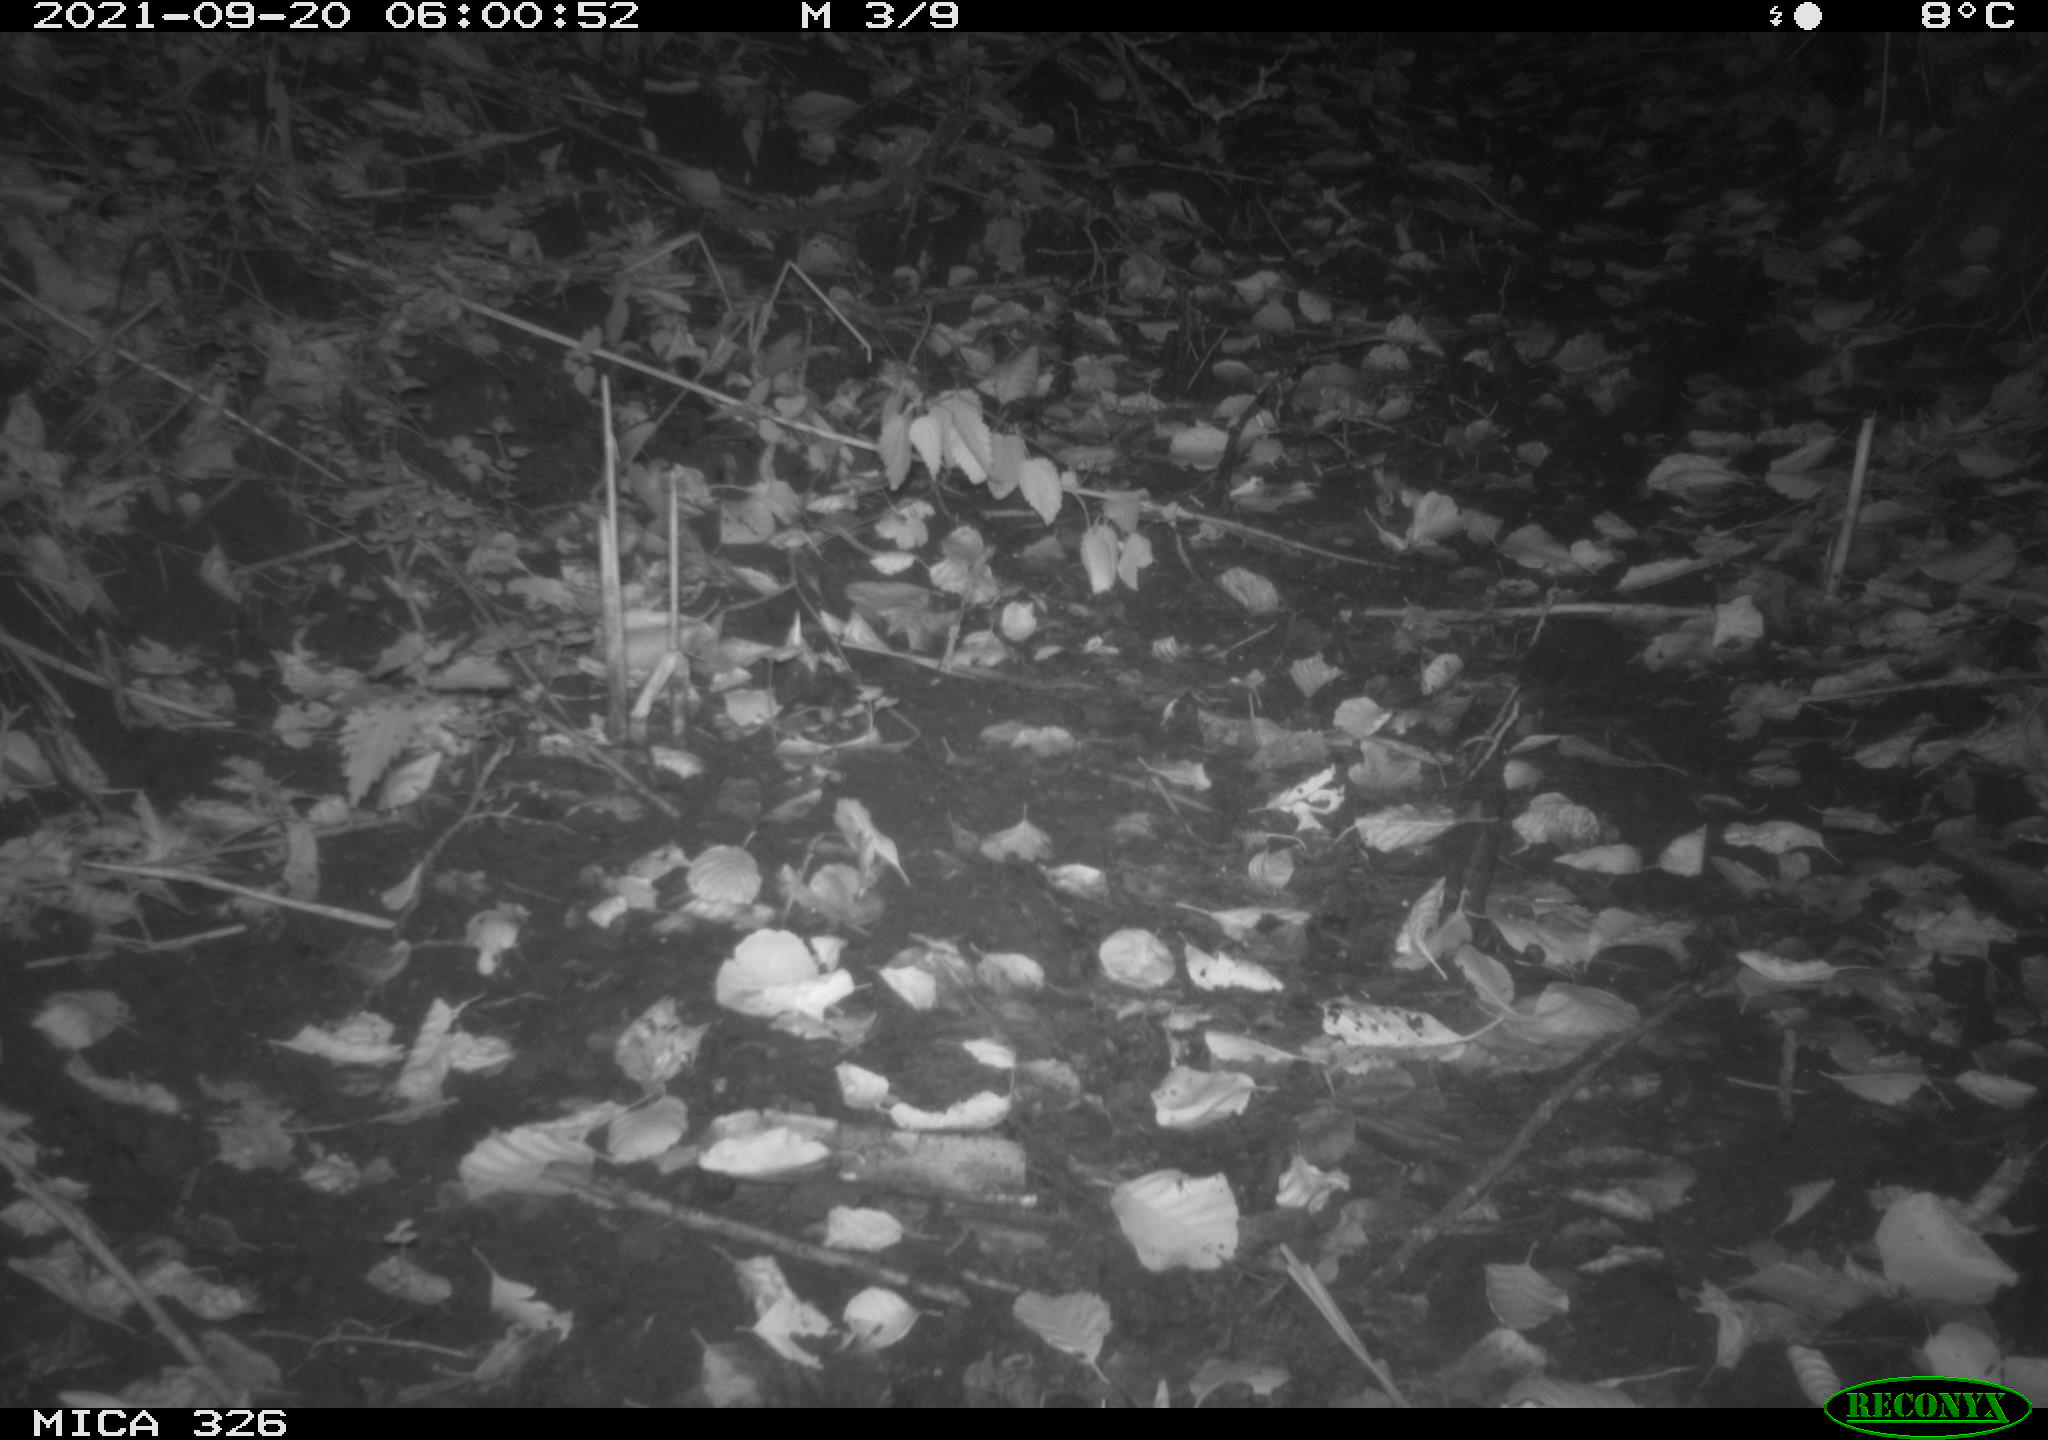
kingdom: Animalia
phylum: Chordata
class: Mammalia
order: Rodentia
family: Muridae
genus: Rattus
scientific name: Rattus norvegicus
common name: Brown rat
